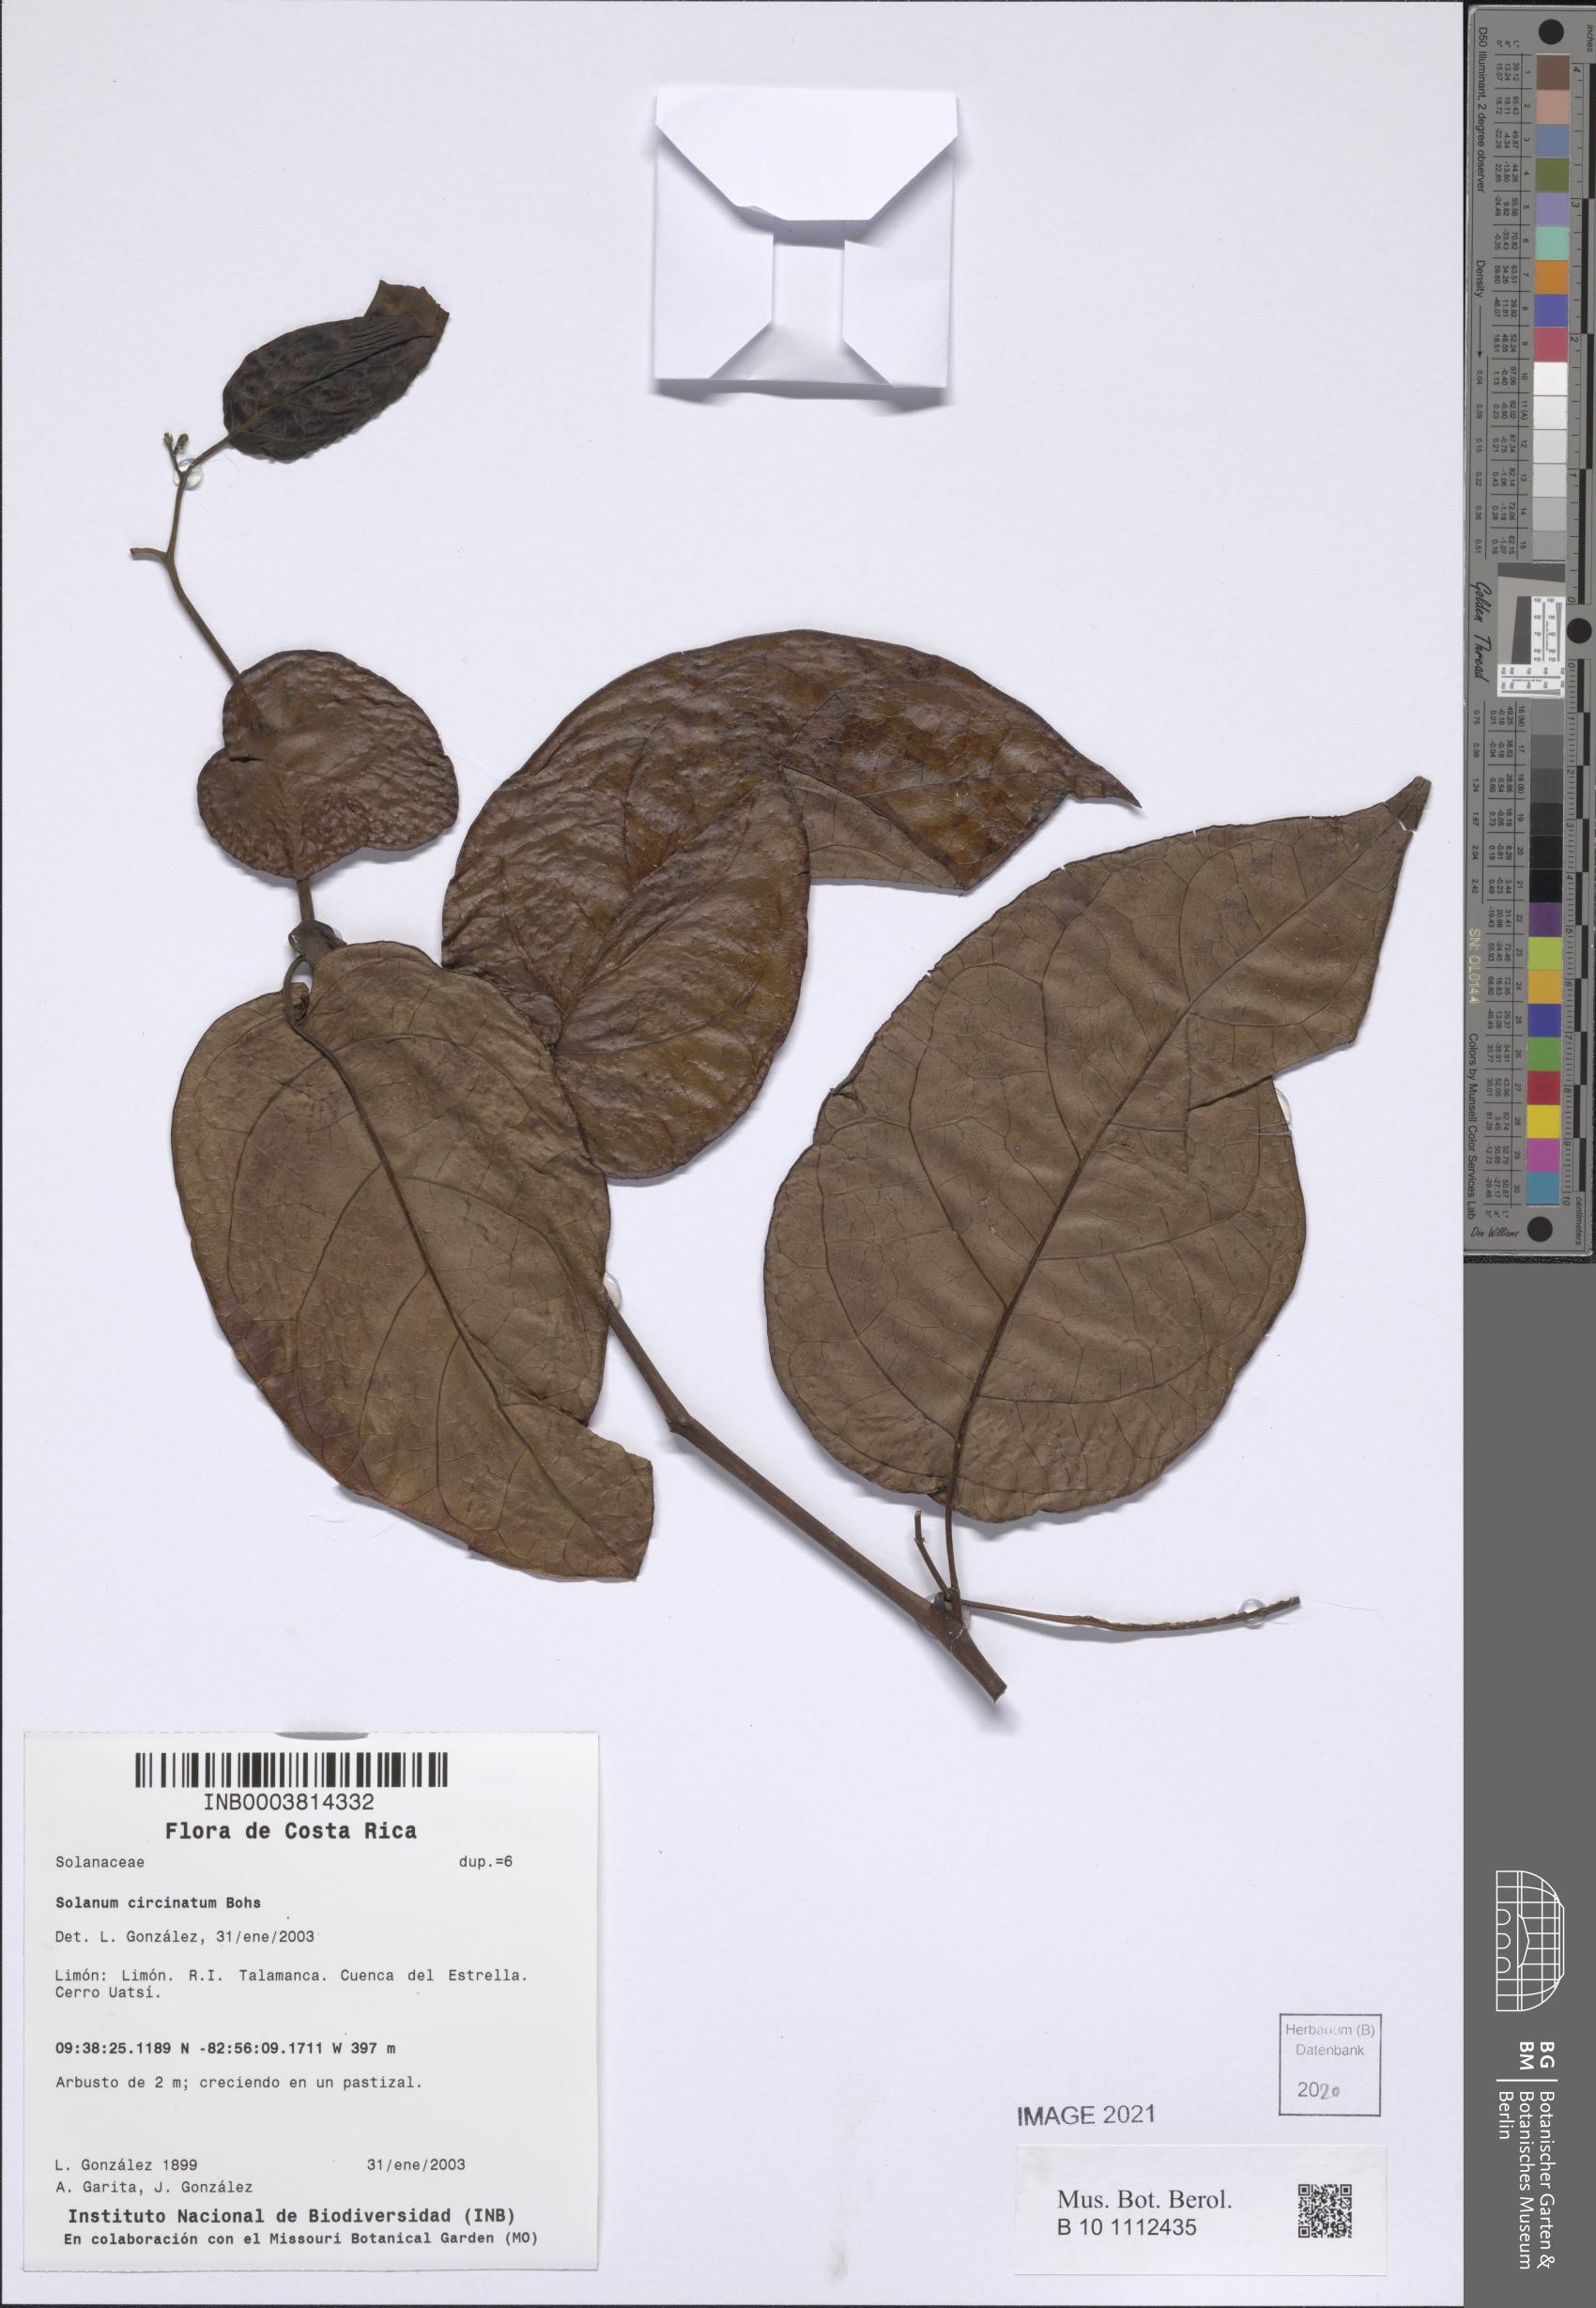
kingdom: Plantae
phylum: Tracheophyta
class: Magnoliopsida
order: Solanales
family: Solanaceae
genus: Solanum
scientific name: Solanum splendens
